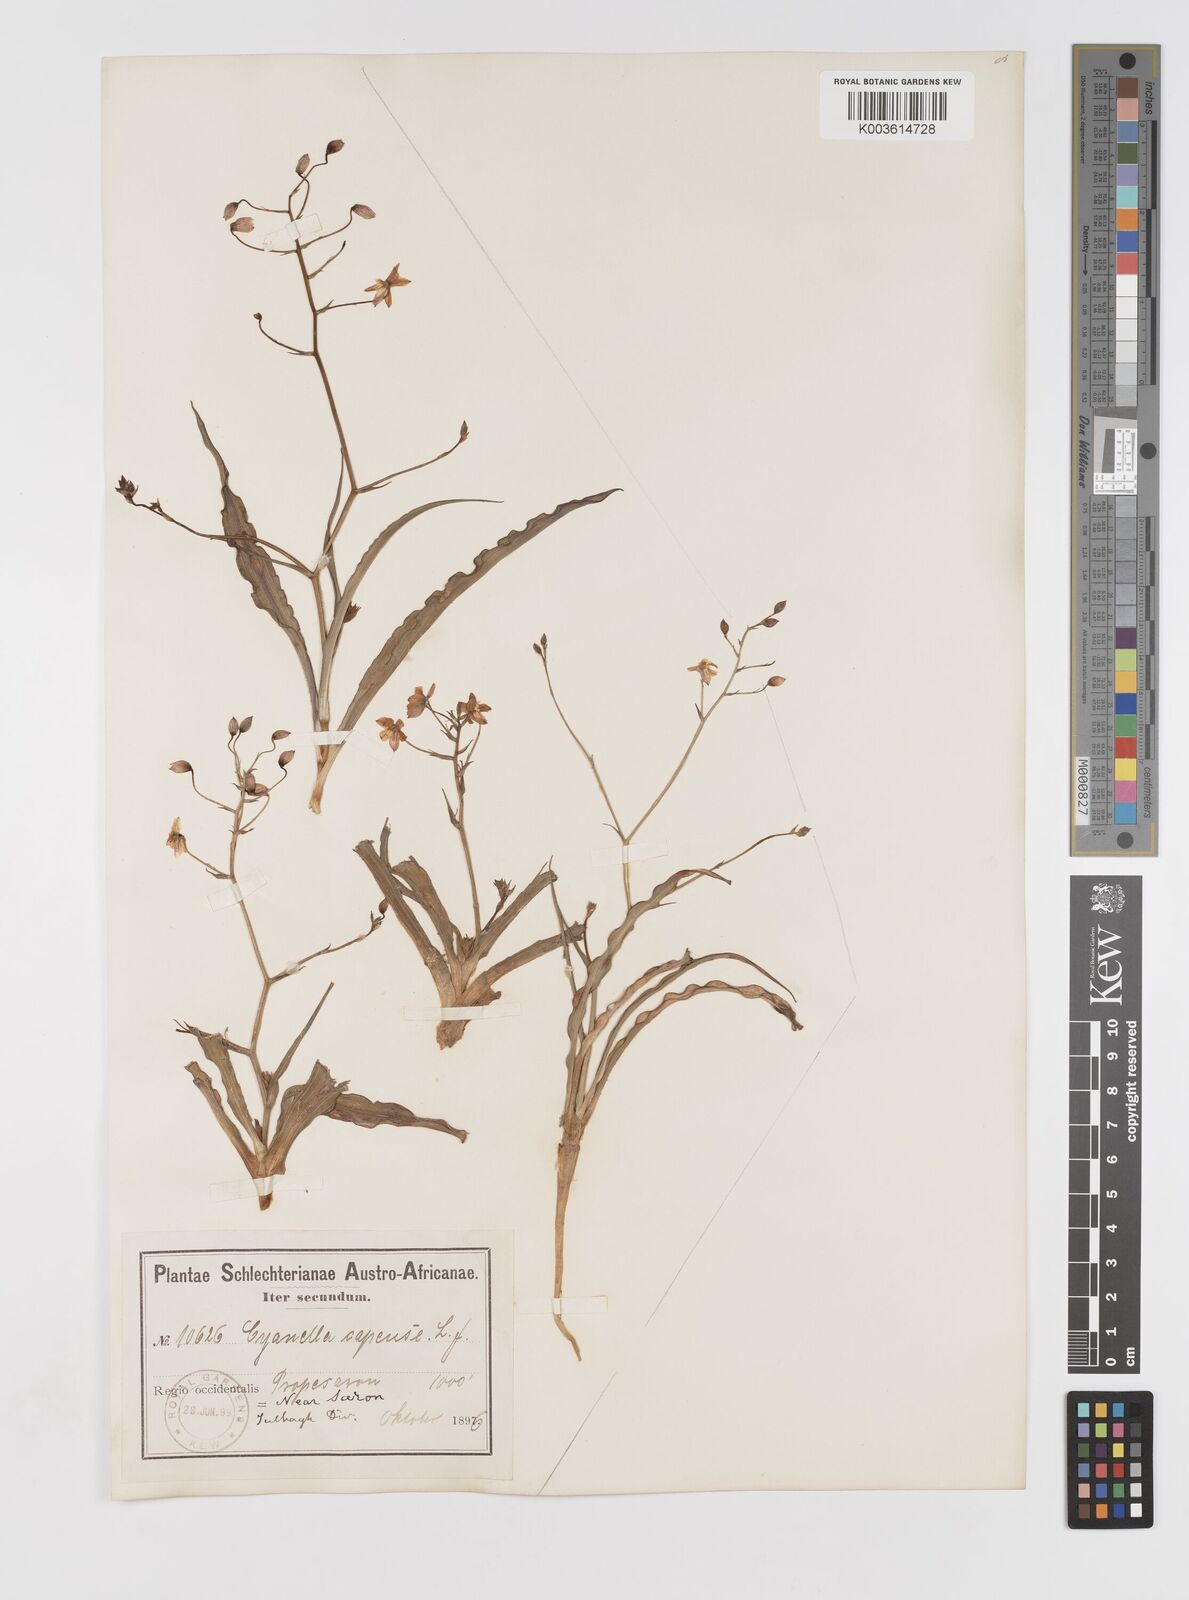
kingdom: Plantae
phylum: Tracheophyta
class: Liliopsida
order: Asparagales
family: Tecophilaeaceae
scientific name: Tecophilaeaceae
